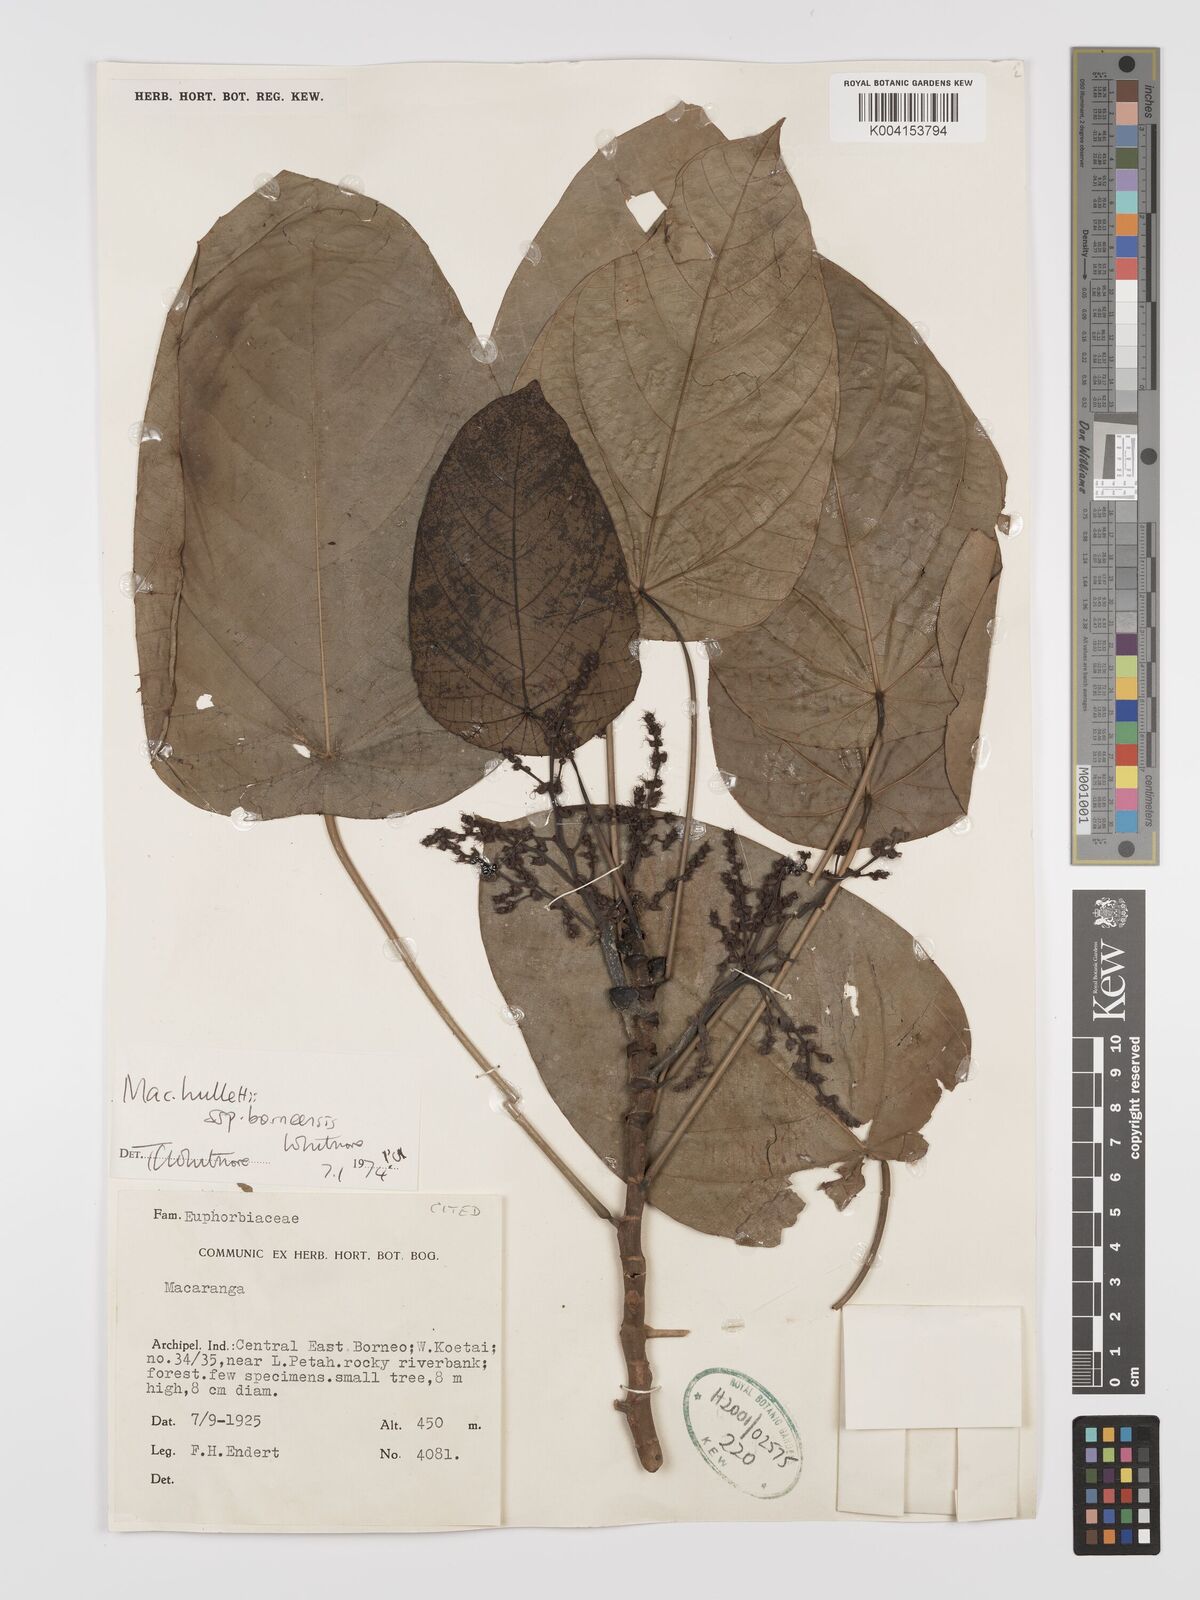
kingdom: Plantae
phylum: Tracheophyta
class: Magnoliopsida
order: Malpighiales
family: Euphorbiaceae
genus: Macaranga
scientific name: Macaranga hullettii
